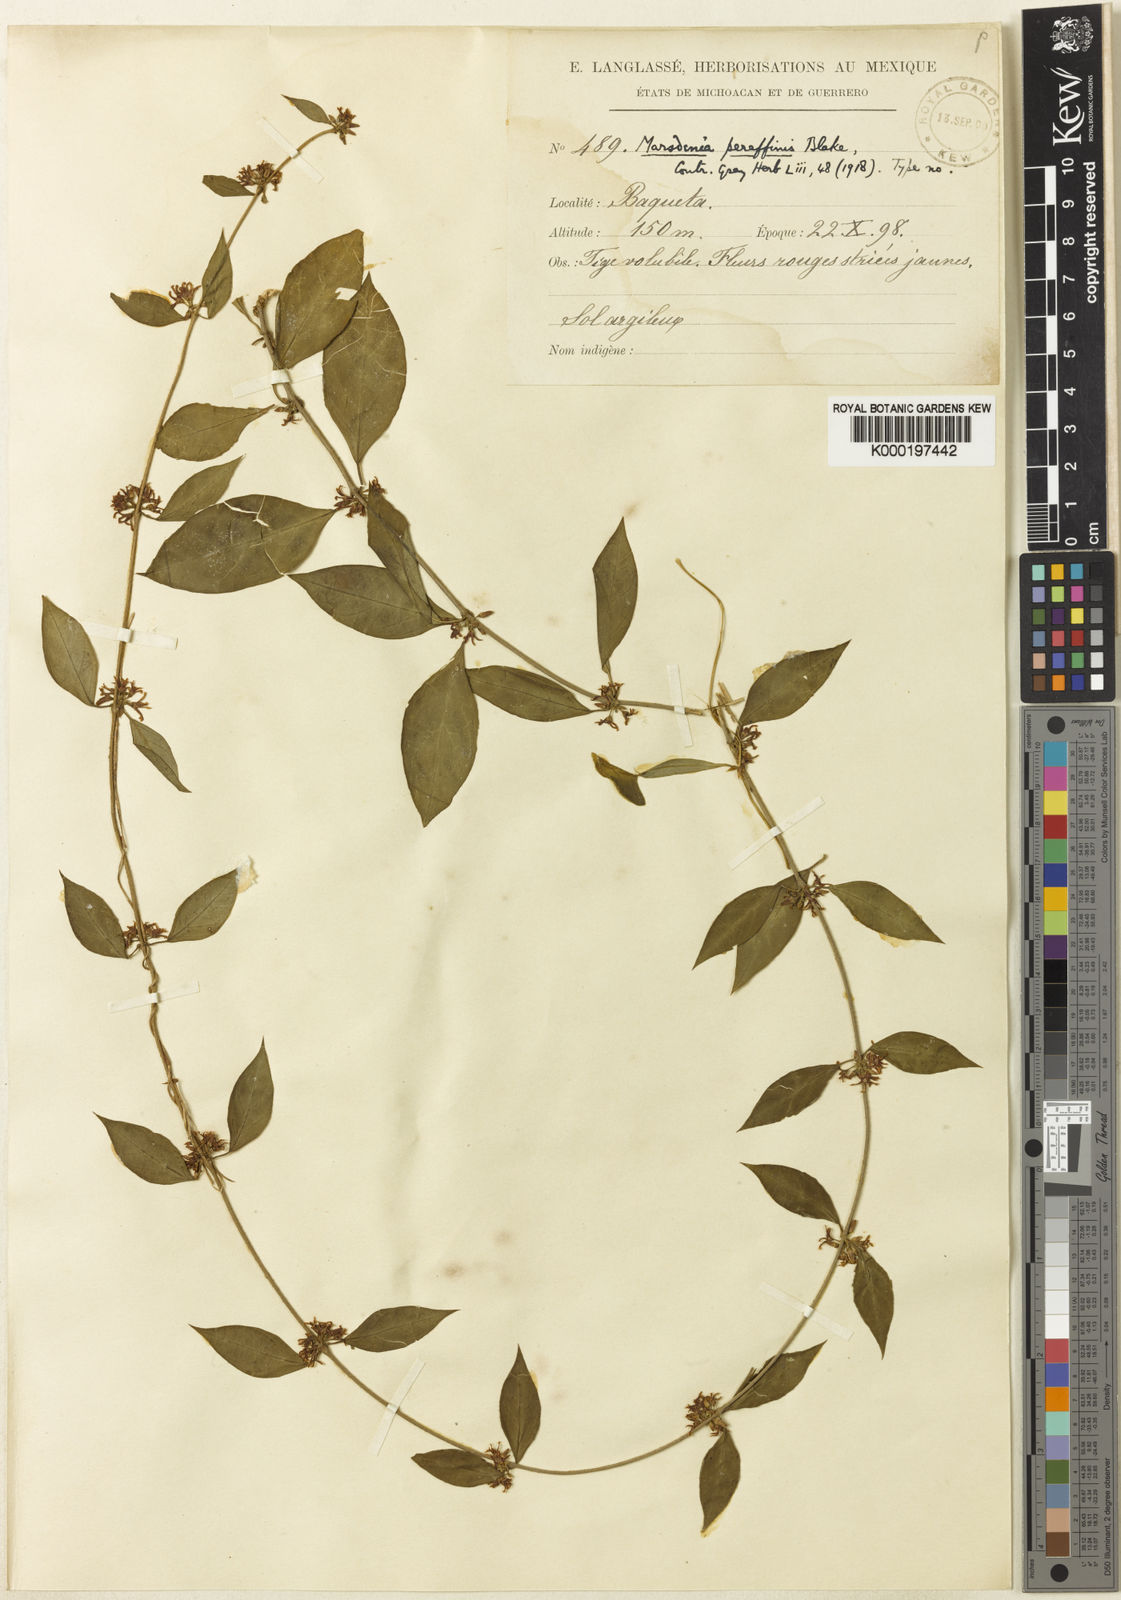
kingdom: Plantae
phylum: Tracheophyta
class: Magnoliopsida
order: Gentianales
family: Apocynaceae
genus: Marsdenia
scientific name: Marsdenia peraffinis
